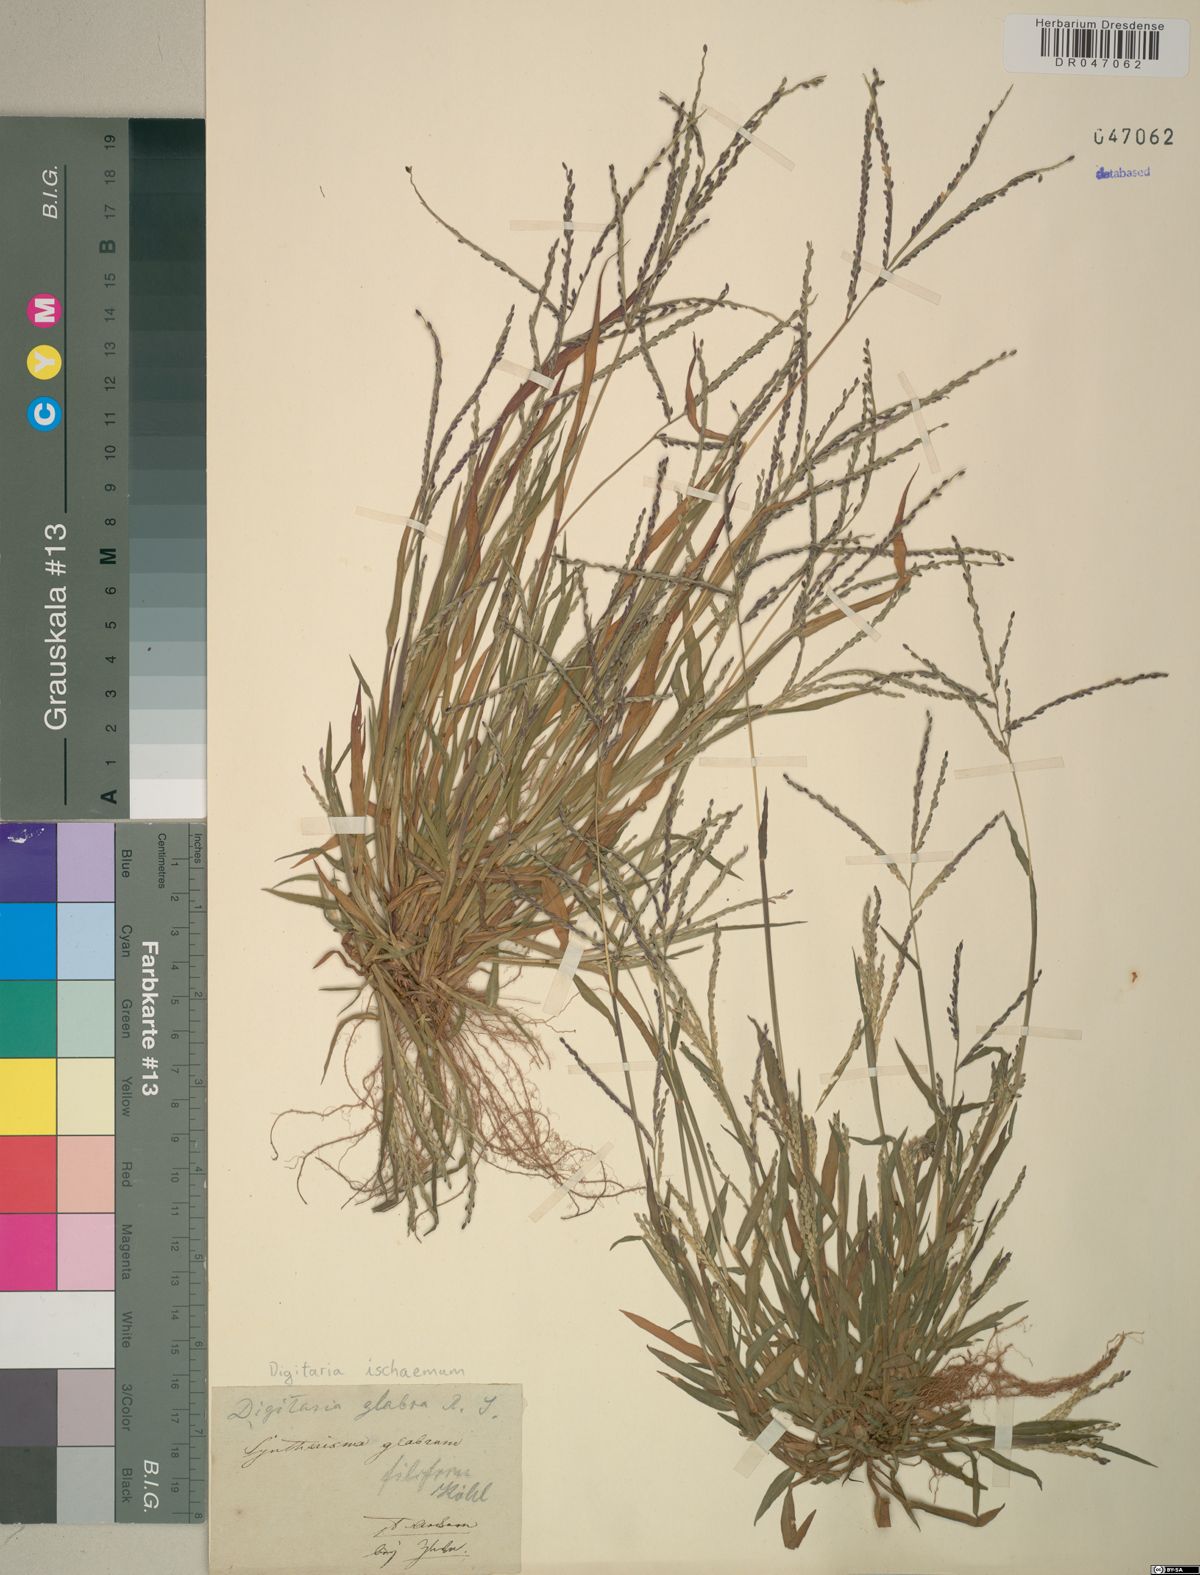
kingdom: Plantae
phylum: Tracheophyta
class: Liliopsida
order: Poales
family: Poaceae
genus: Digitaria
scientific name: Digitaria ischaemum
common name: Smooth crabgrass
